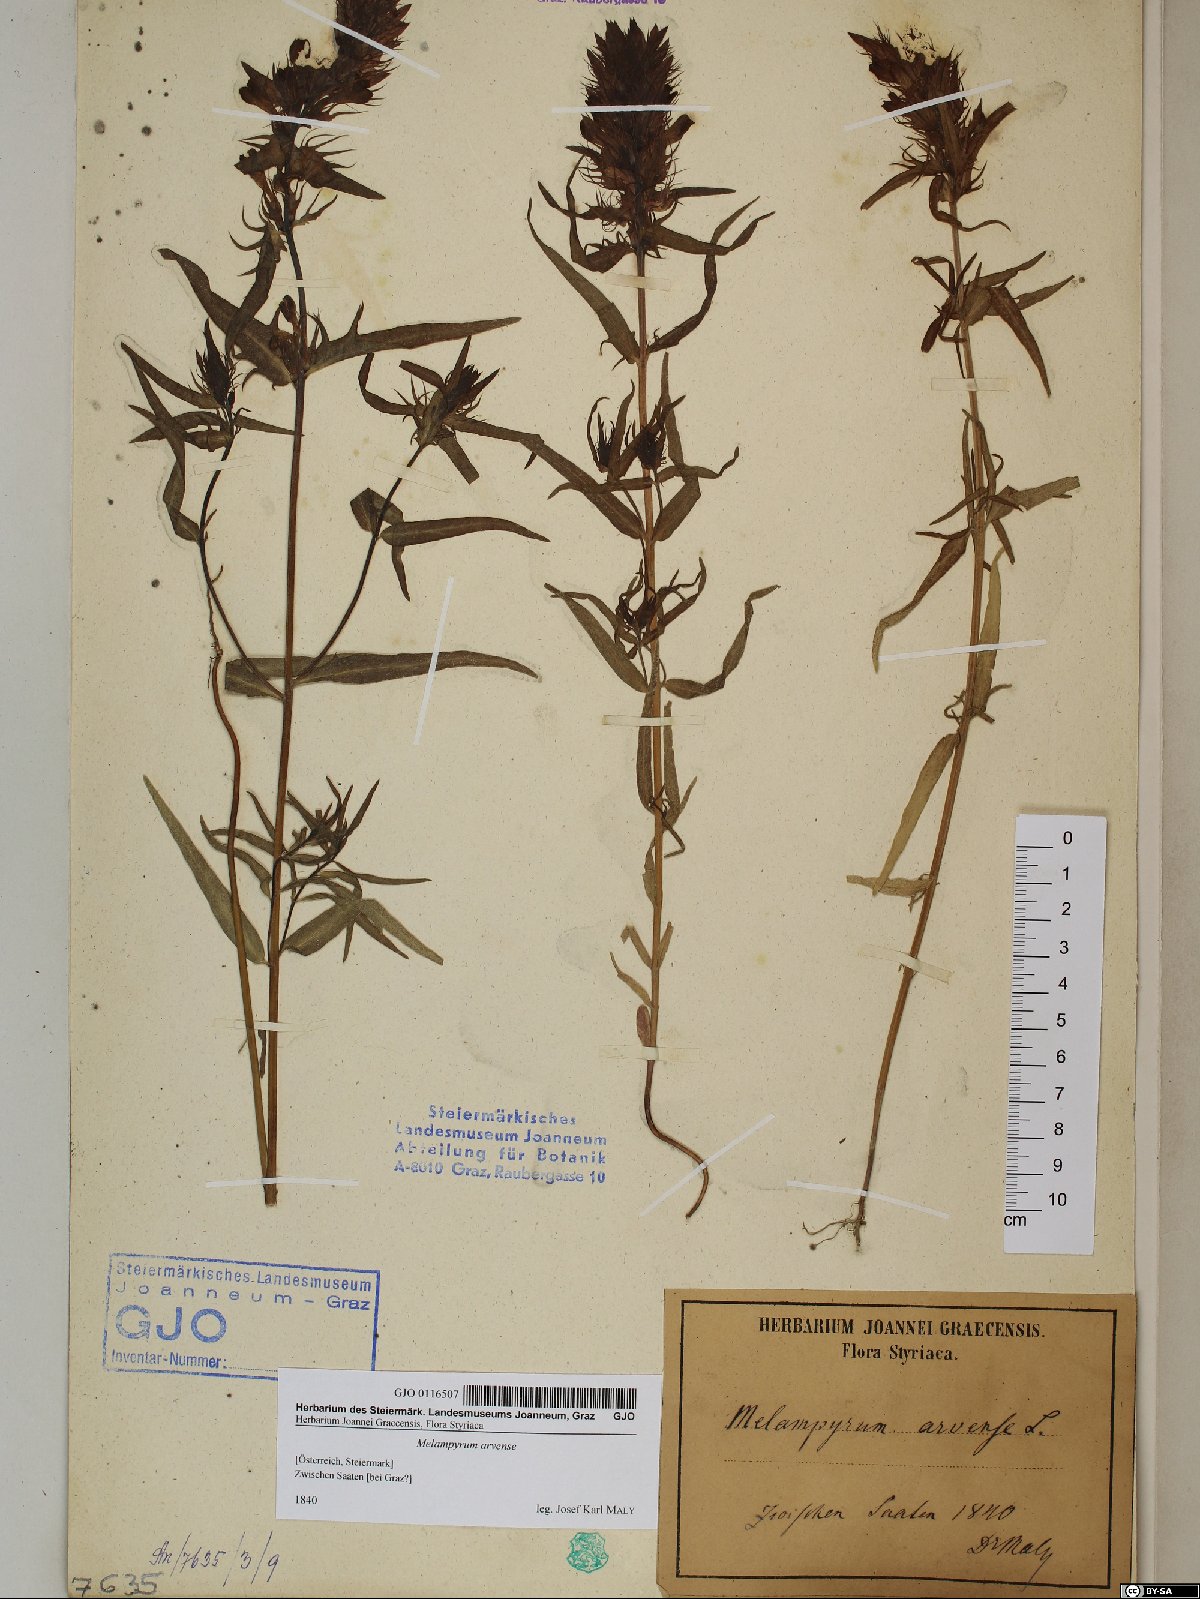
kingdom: Plantae
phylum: Tracheophyta
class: Magnoliopsida
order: Lamiales
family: Orobanchaceae
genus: Melampyrum
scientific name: Melampyrum arvense
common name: Field cow-wheat
